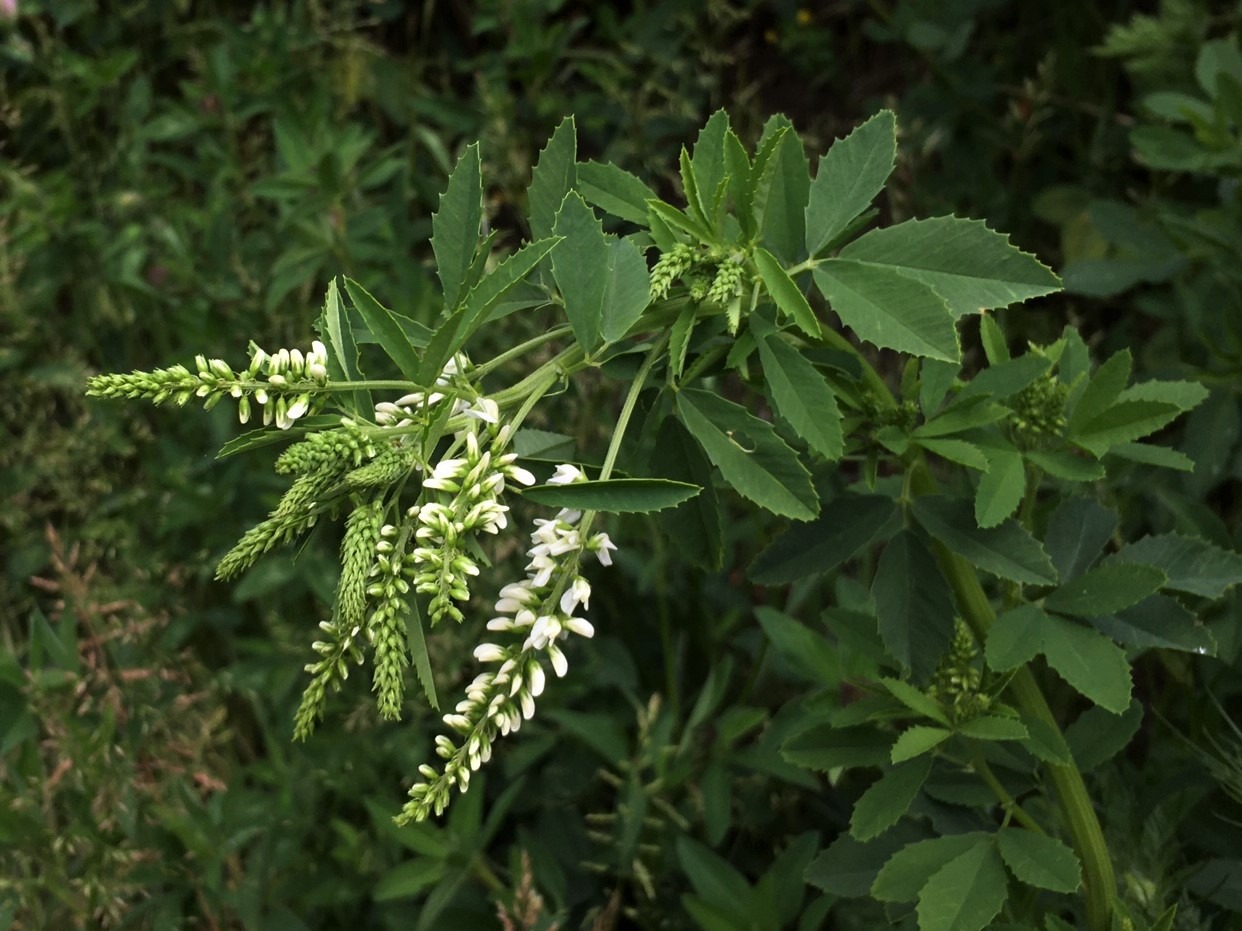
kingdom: Plantae
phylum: Tracheophyta
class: Magnoliopsida
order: Fabales
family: Fabaceae
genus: Melilotus
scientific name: Melilotus albus
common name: Hvid stenkløver
